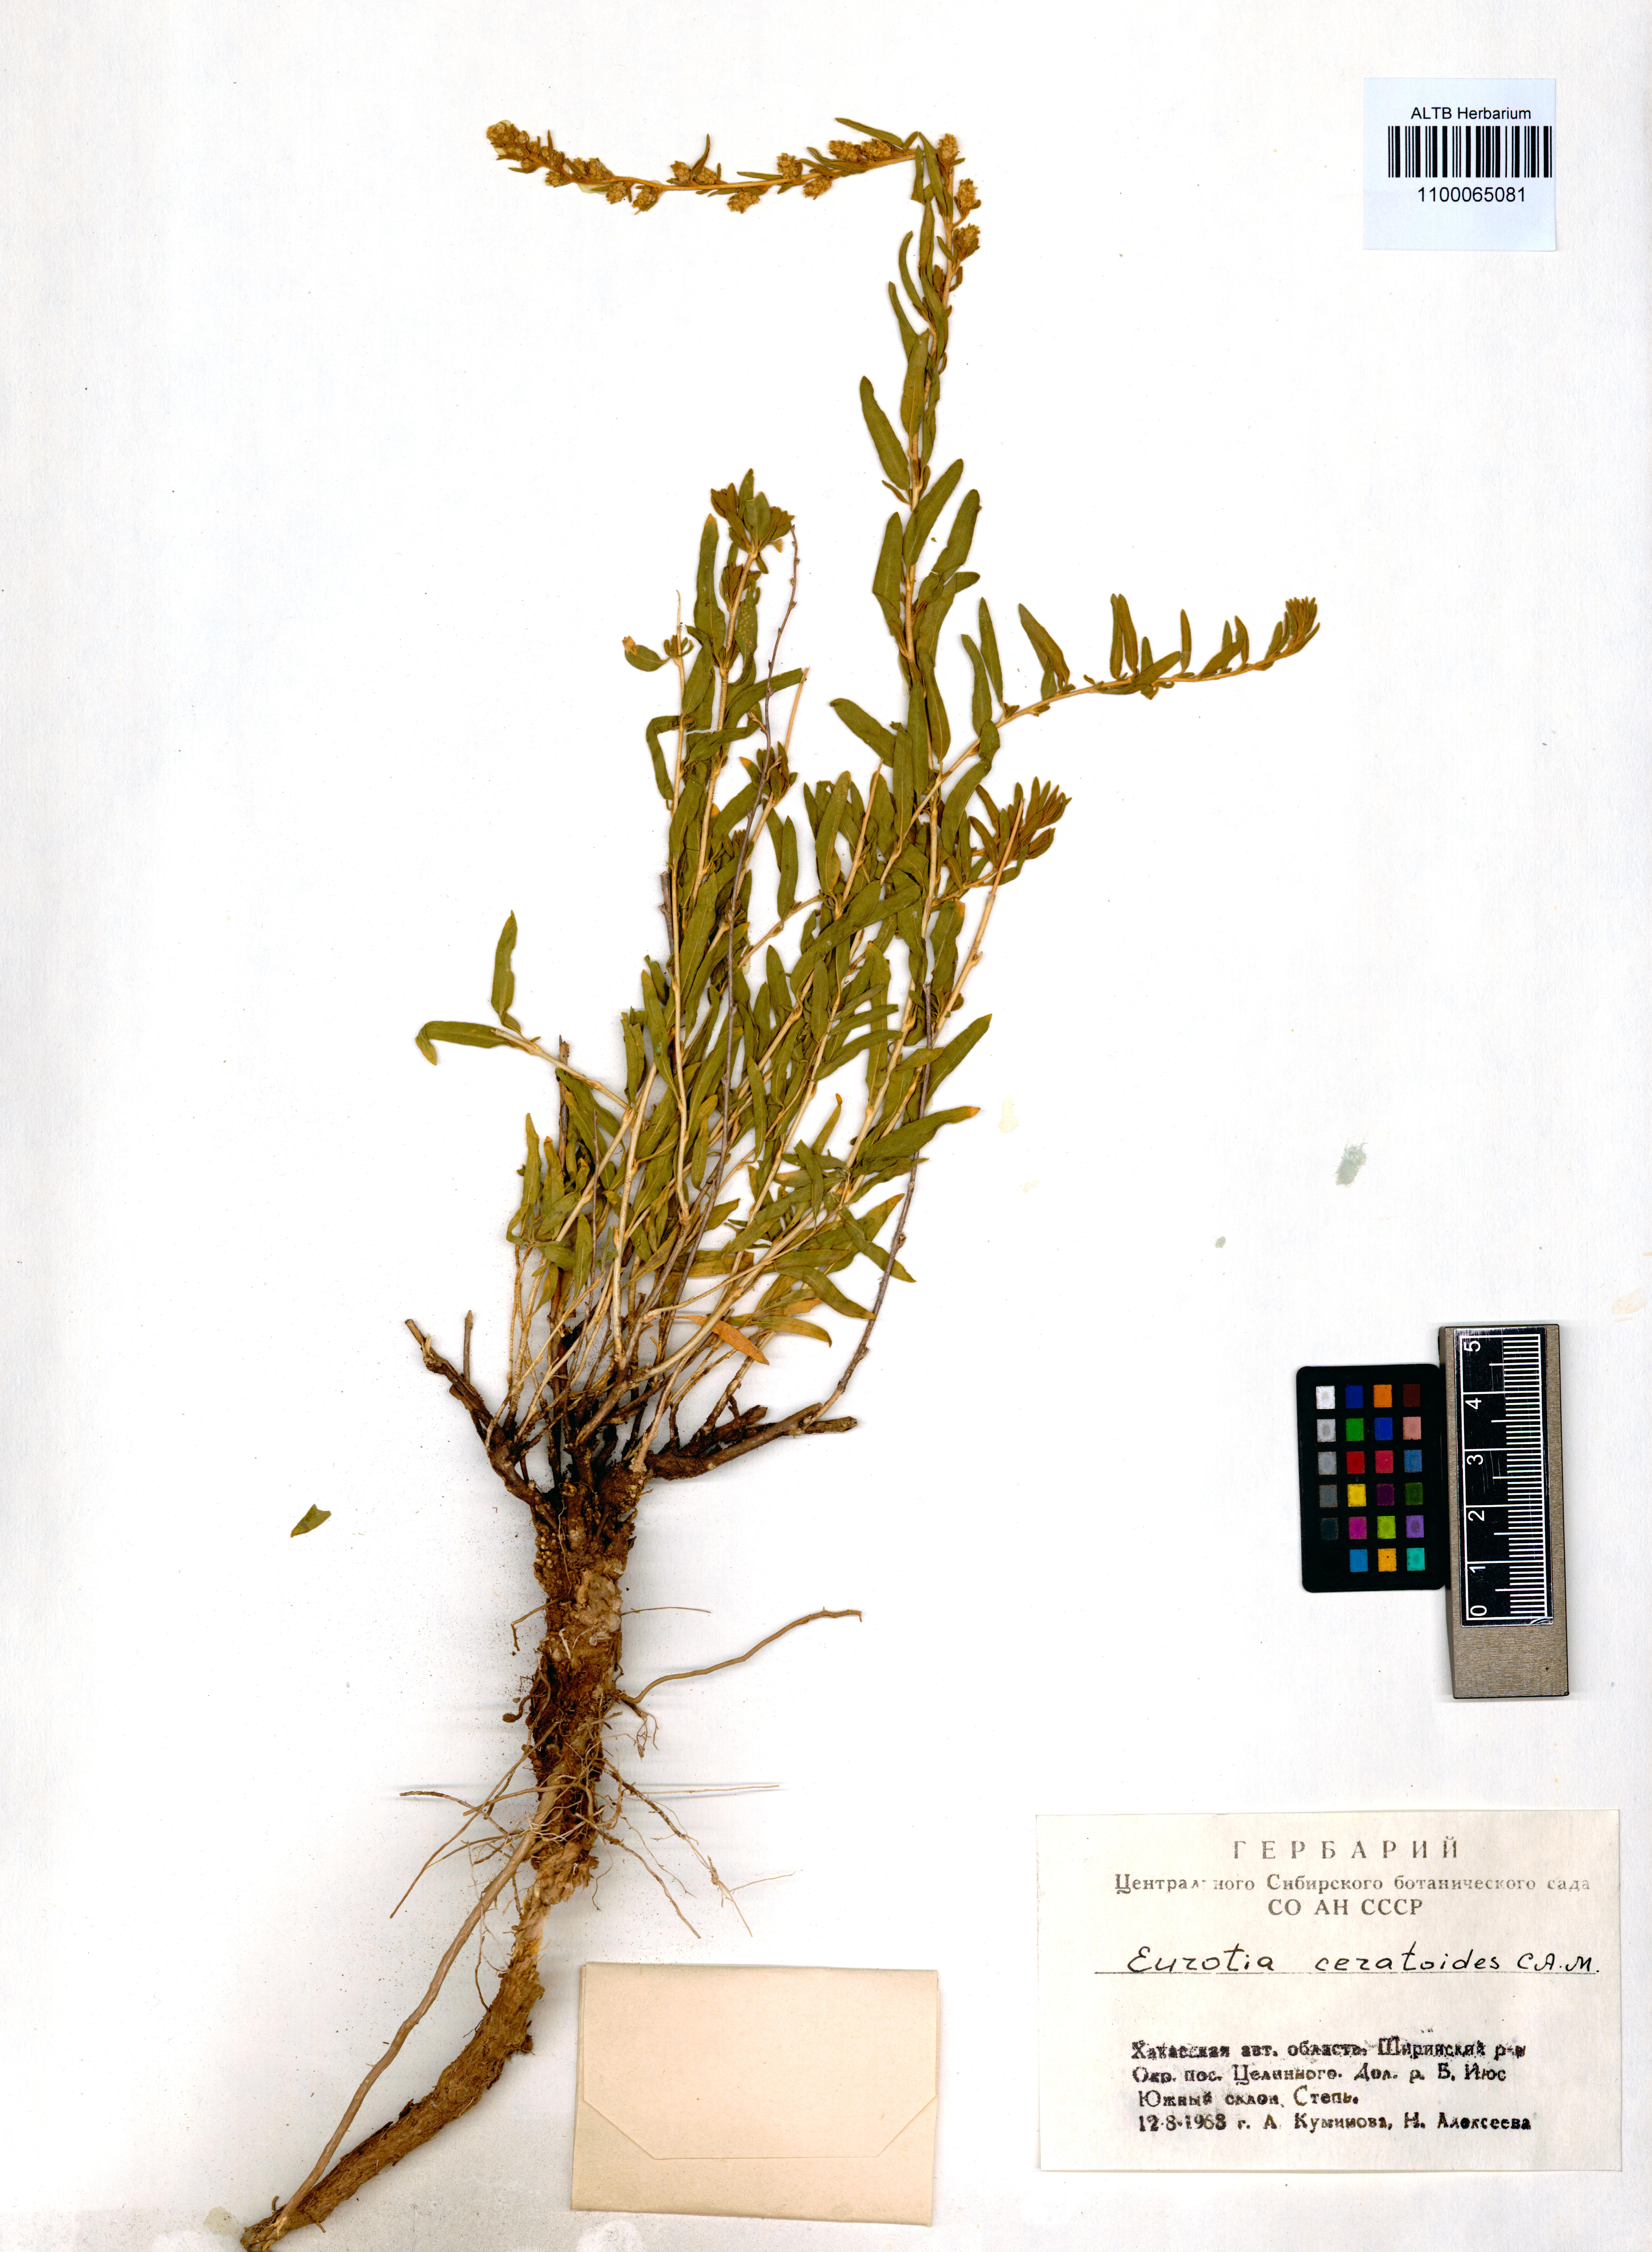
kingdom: Plantae
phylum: Tracheophyta
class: Magnoliopsida
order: Caryophyllales
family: Amaranthaceae
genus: Krascheninnikovia
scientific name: Krascheninnikovia ceratoides
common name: Pamirian winterfat
